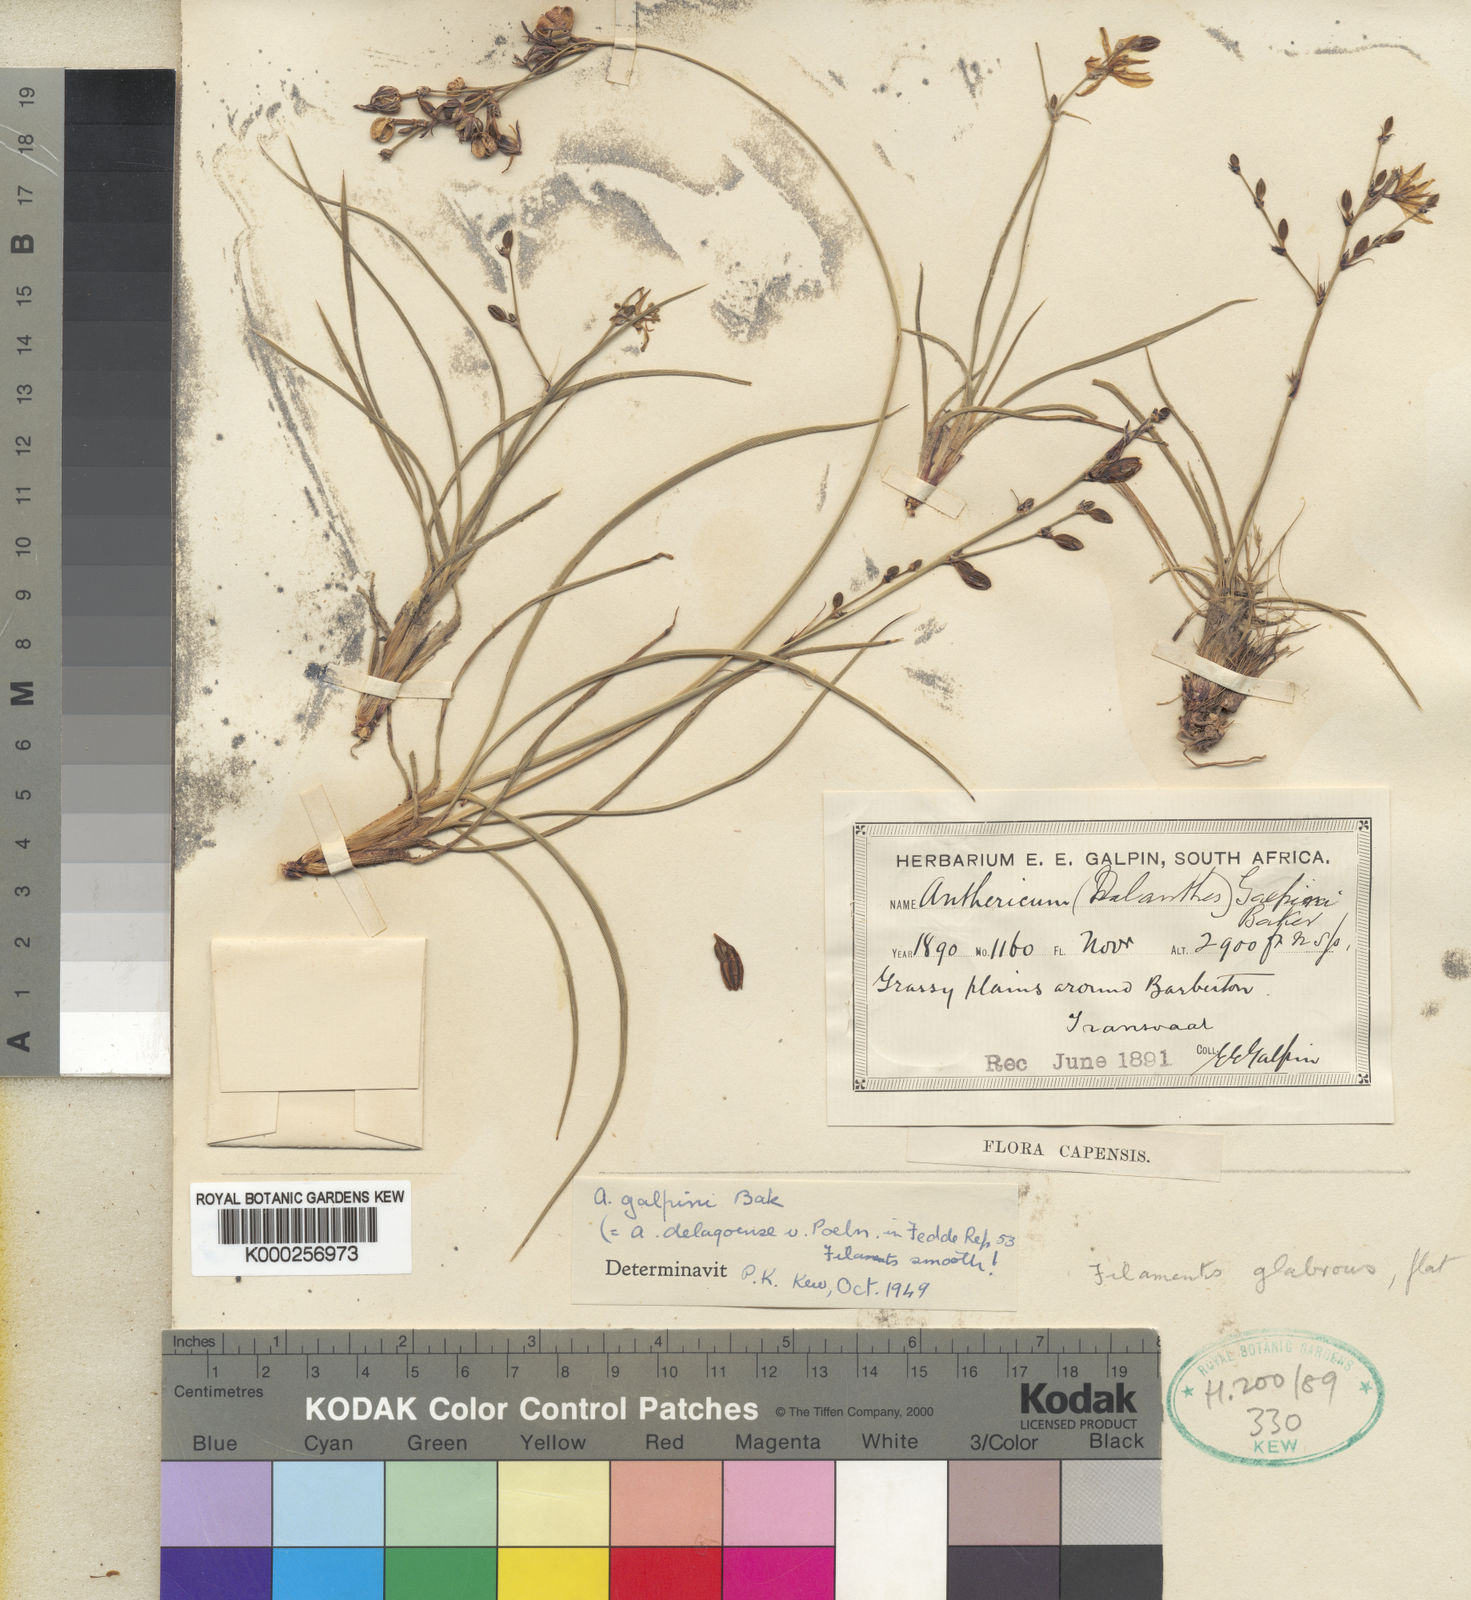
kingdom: Plantae
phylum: Tracheophyta
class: Liliopsida
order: Asparagales
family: Asparagaceae
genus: Chlorophytum
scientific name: Chlorophytum galpinii
